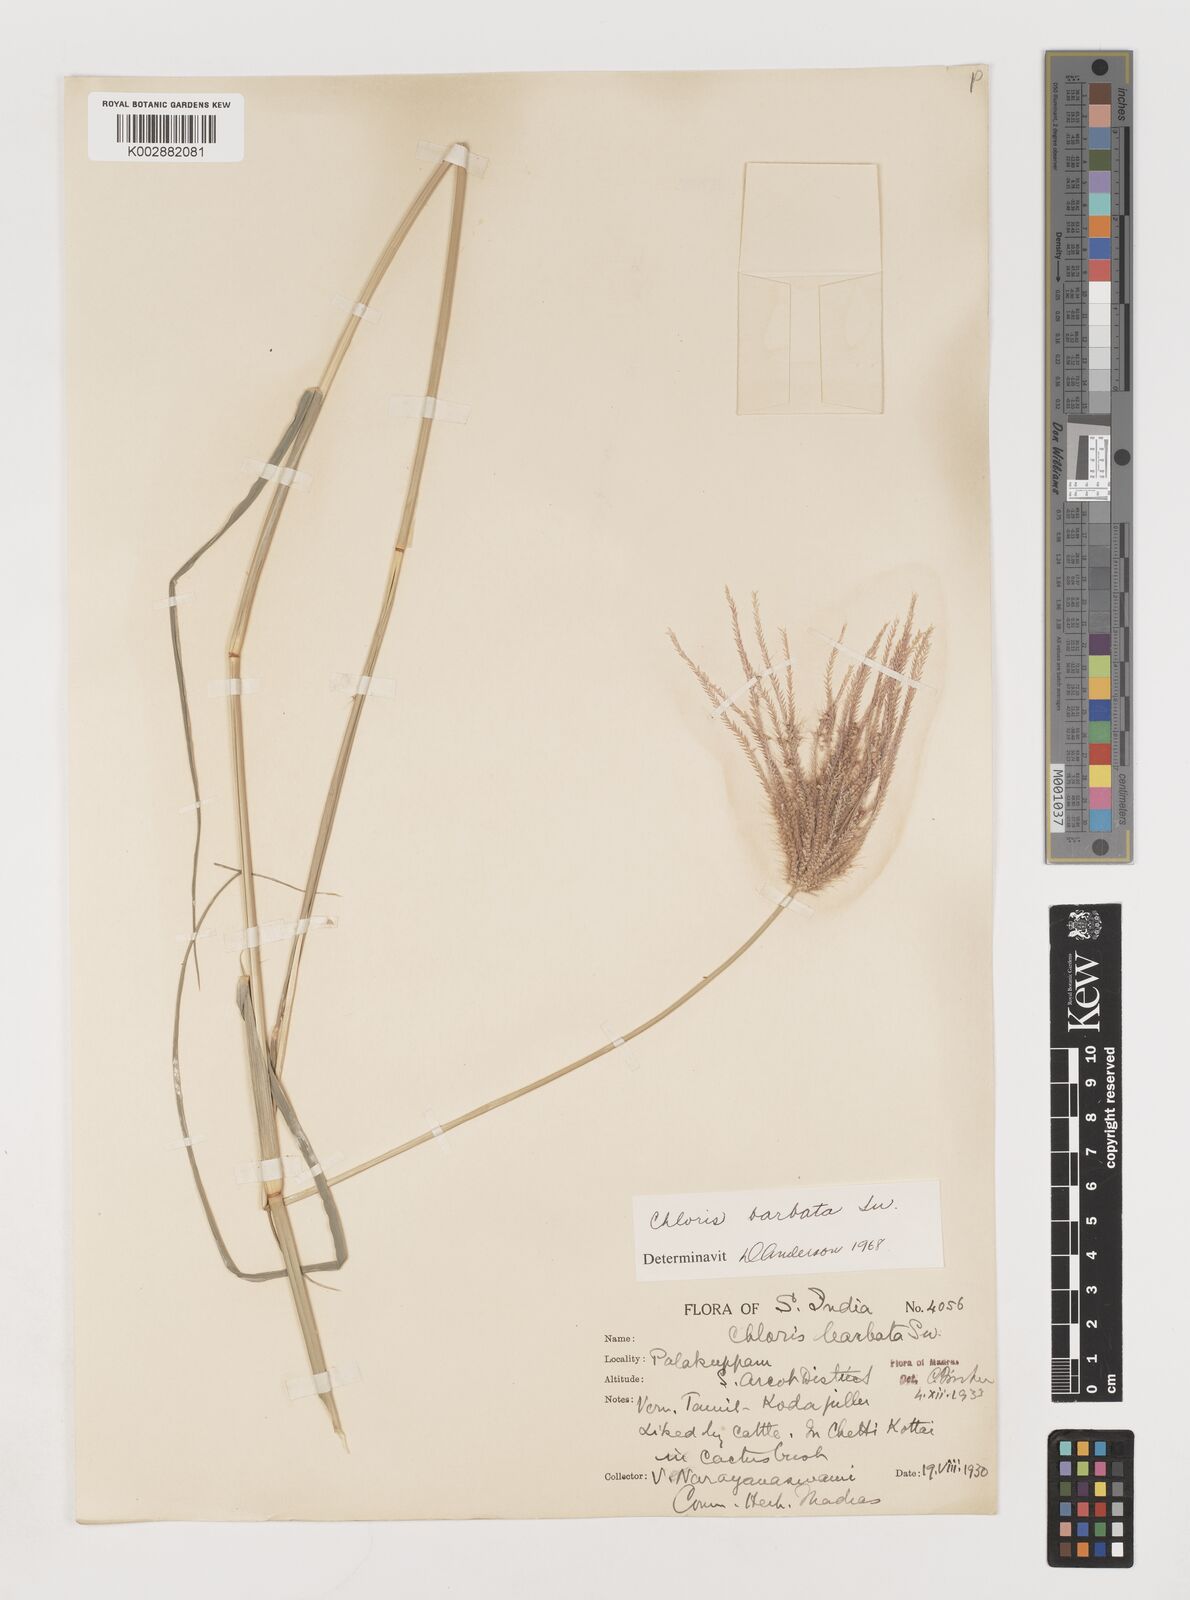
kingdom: Plantae
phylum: Tracheophyta
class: Liliopsida
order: Poales
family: Poaceae
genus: Chloris
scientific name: Chloris barbata
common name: Swollen fingergrass
